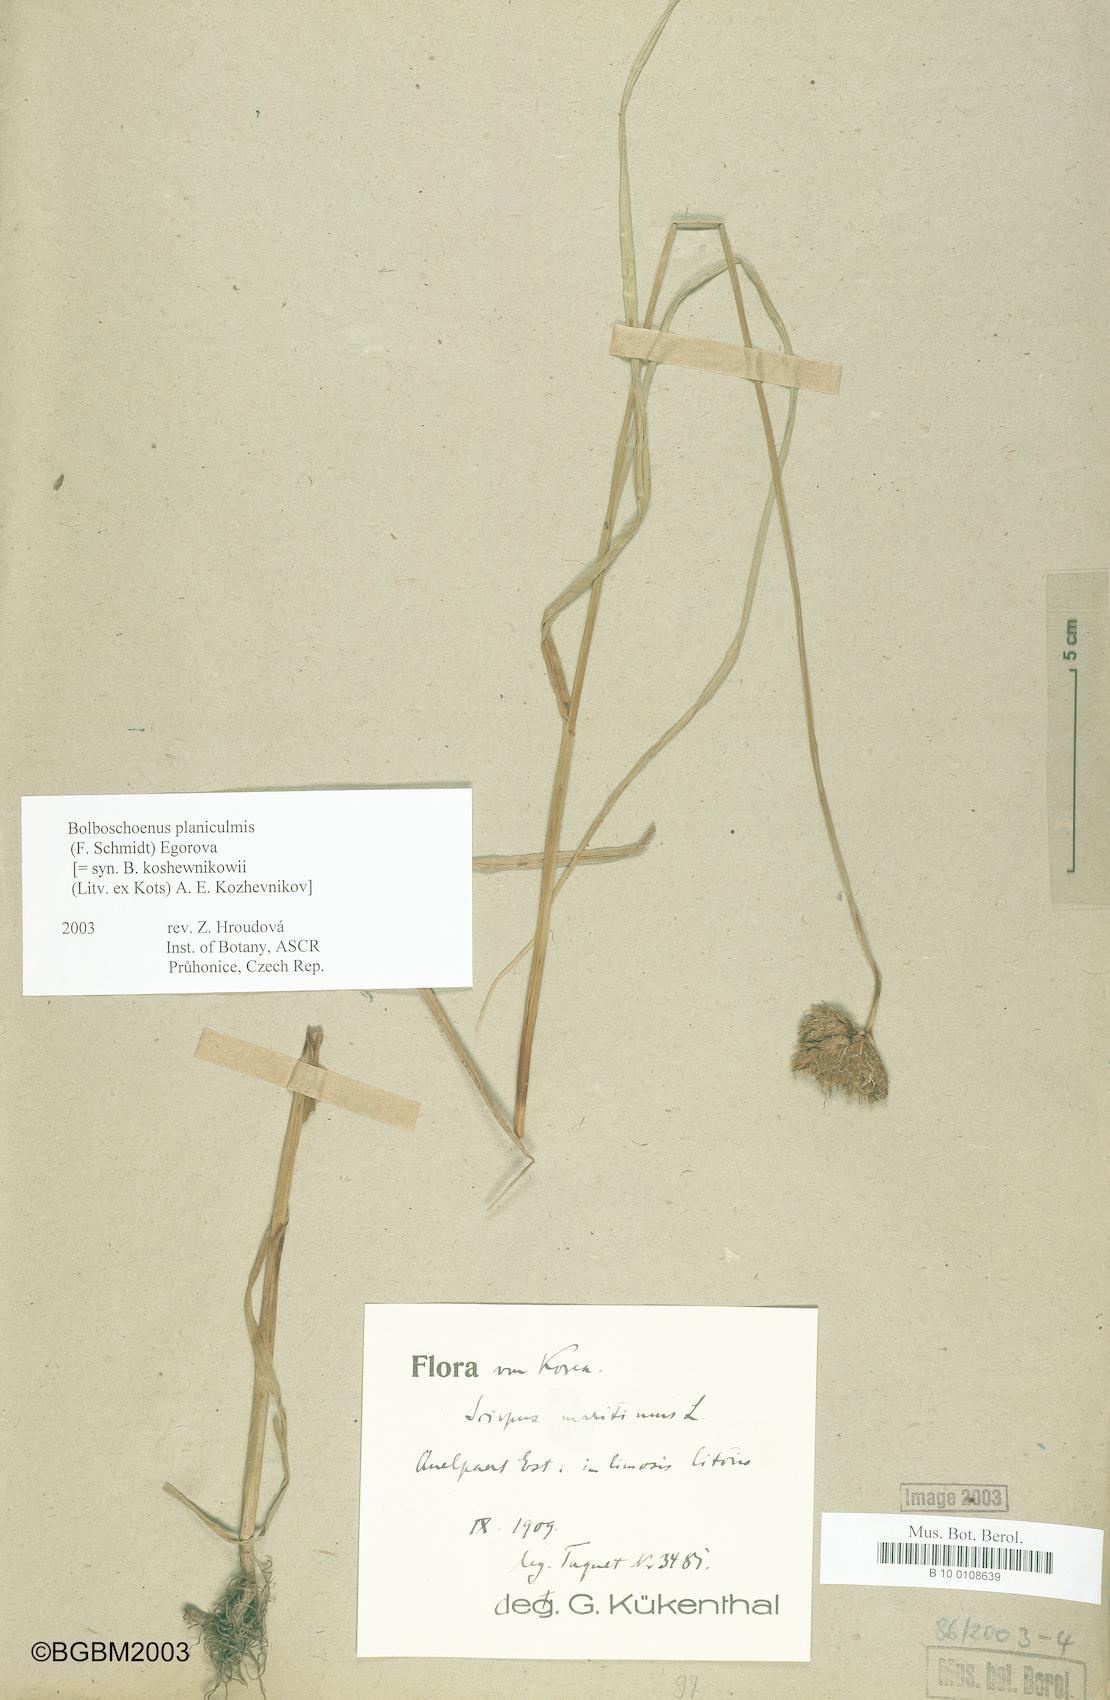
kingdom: Plantae
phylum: Tracheophyta
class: Liliopsida
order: Poales
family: Cyperaceae
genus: Bolboschoenus
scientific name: Bolboschoenus planiculmis
